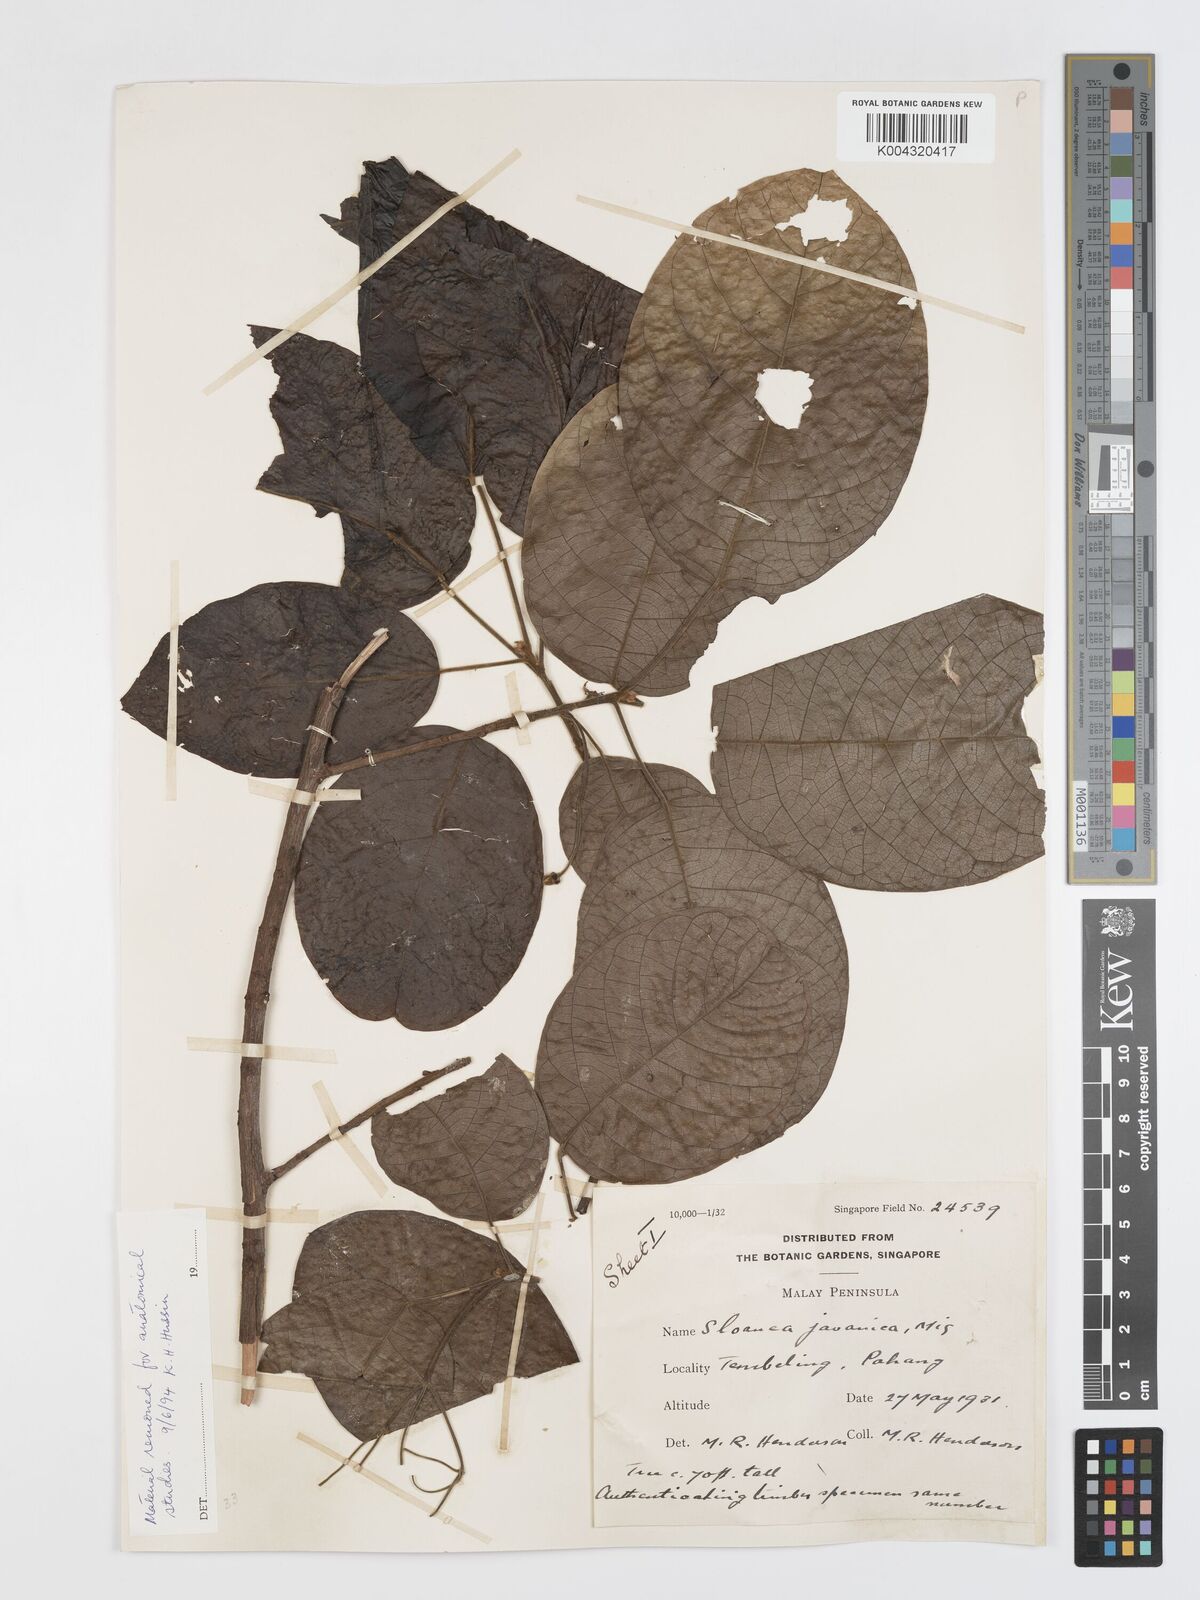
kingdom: Plantae
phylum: Tracheophyta
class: Magnoliopsida
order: Oxalidales
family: Elaeocarpaceae
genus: Sloanea
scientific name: Sloanea javanica
